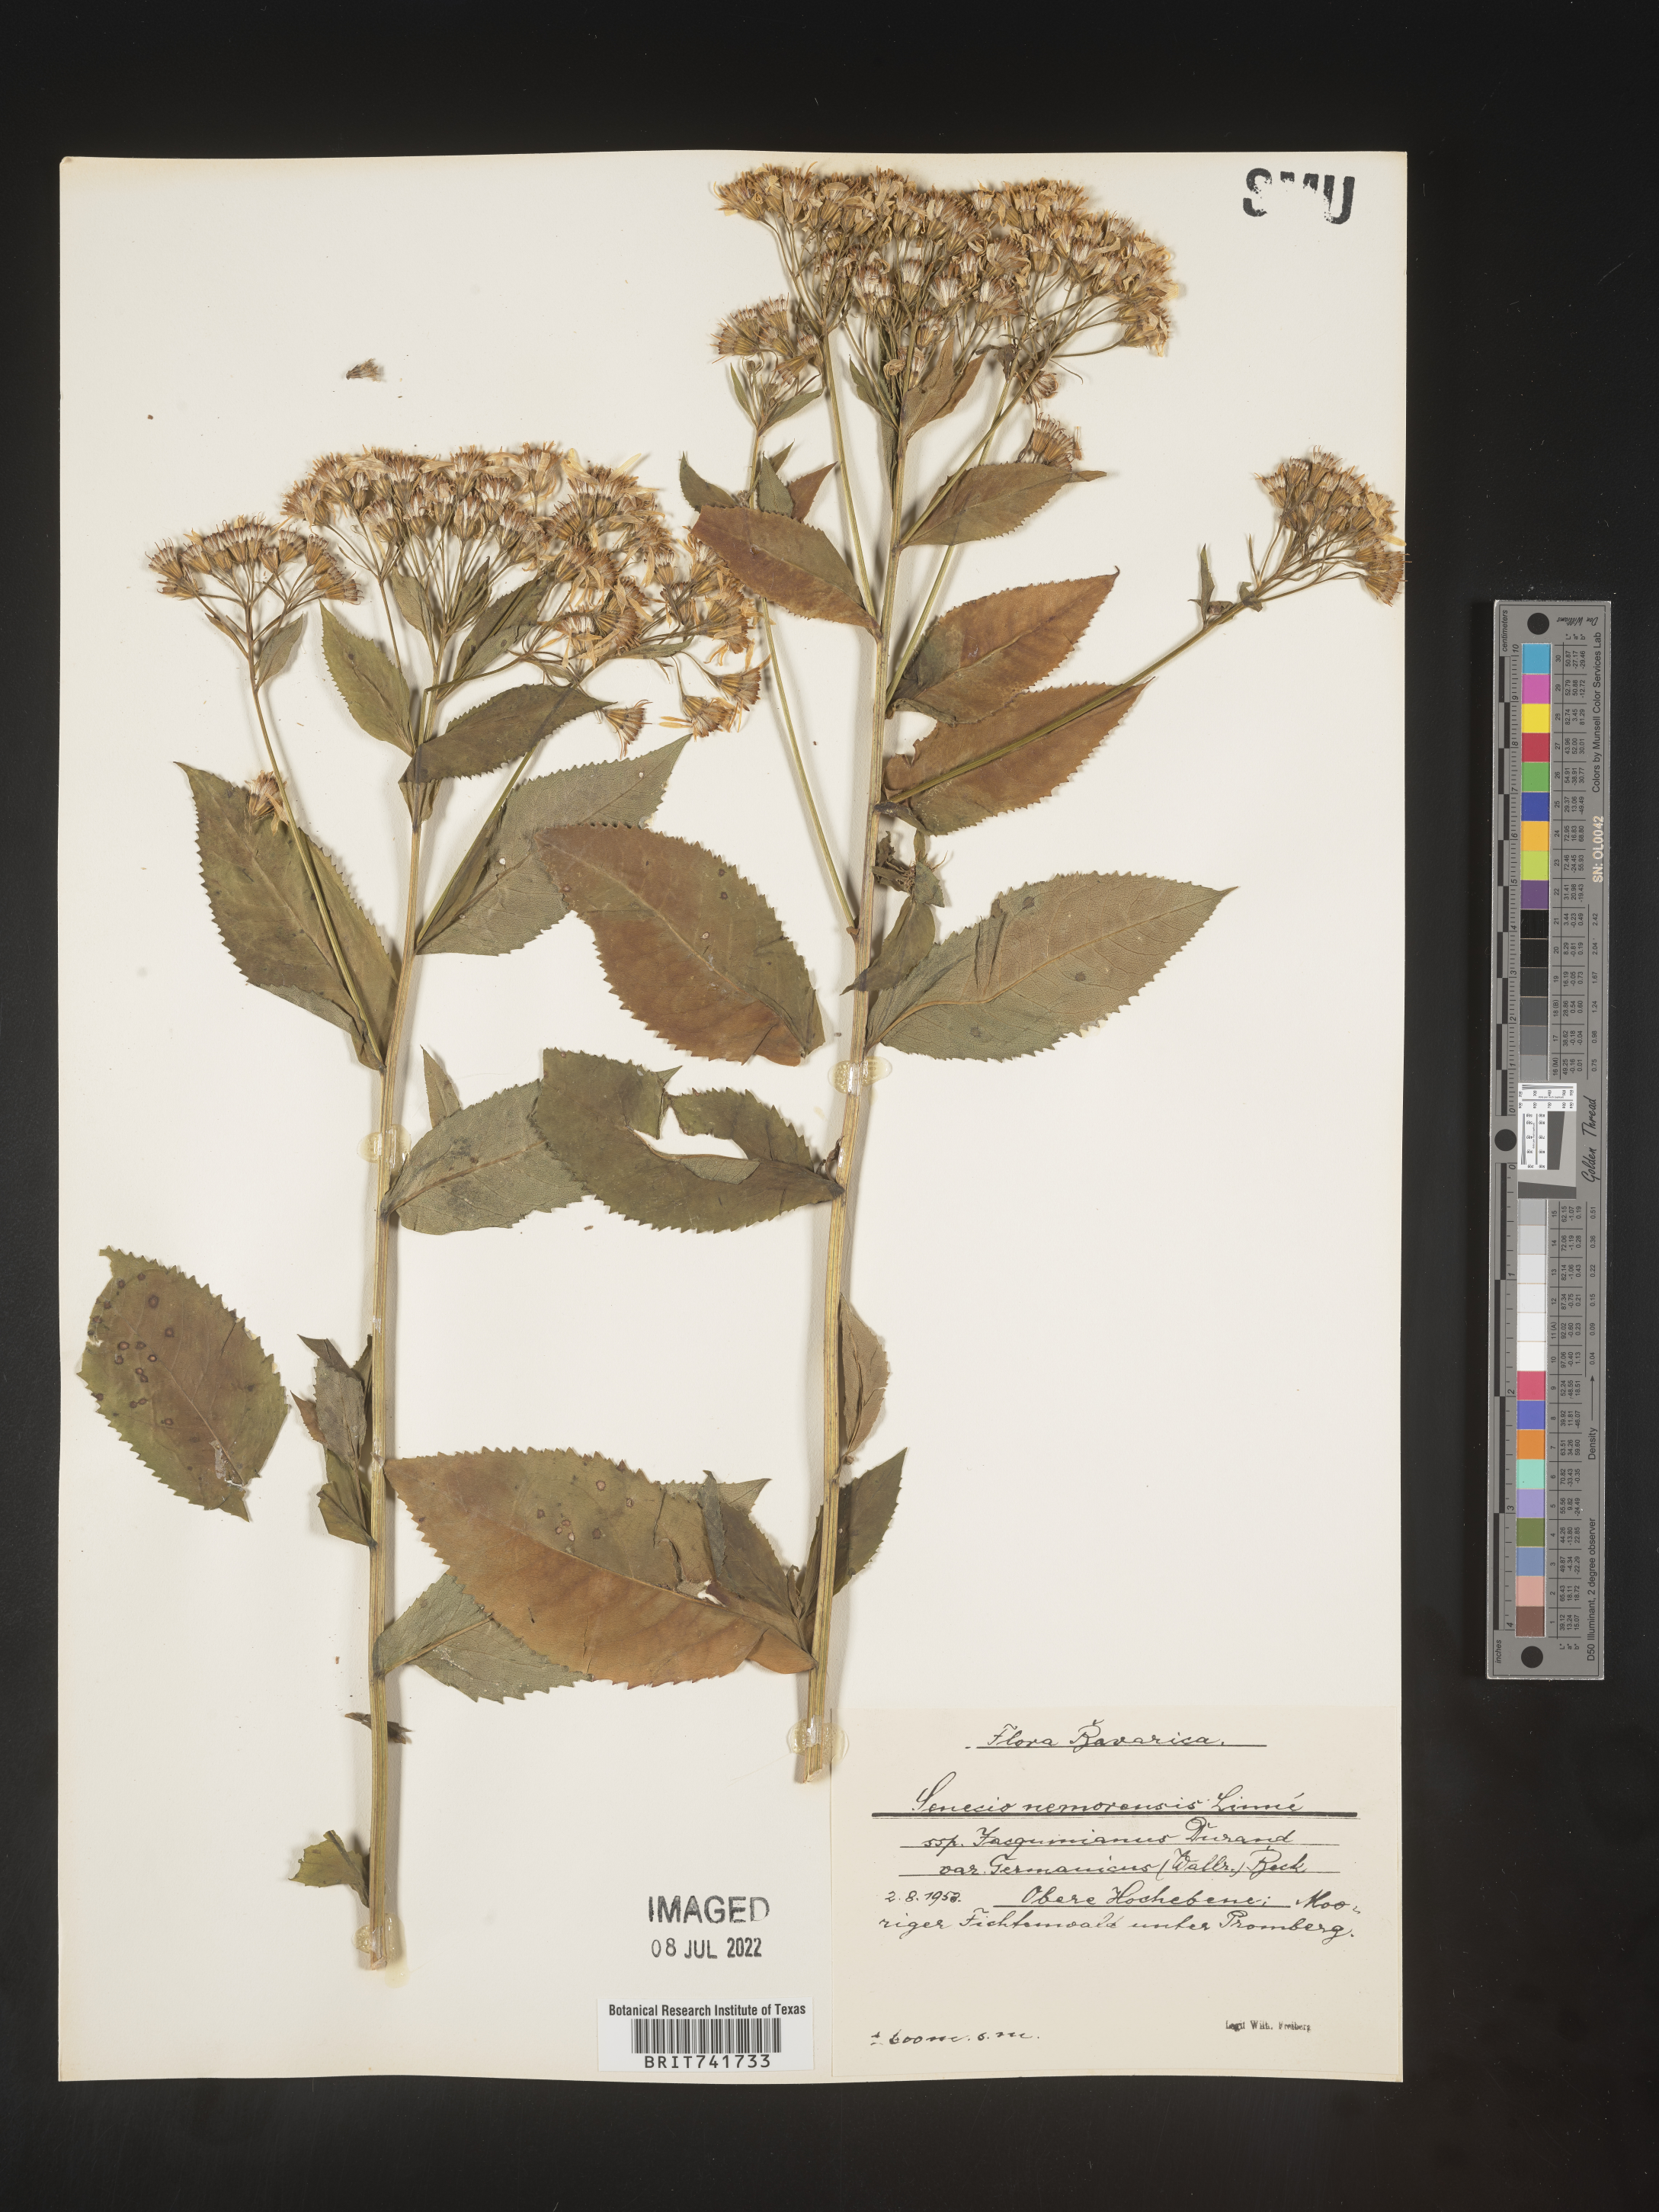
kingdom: Plantae
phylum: Tracheophyta
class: Magnoliopsida
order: Asterales
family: Asteraceae
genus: Senecio
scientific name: Senecio
